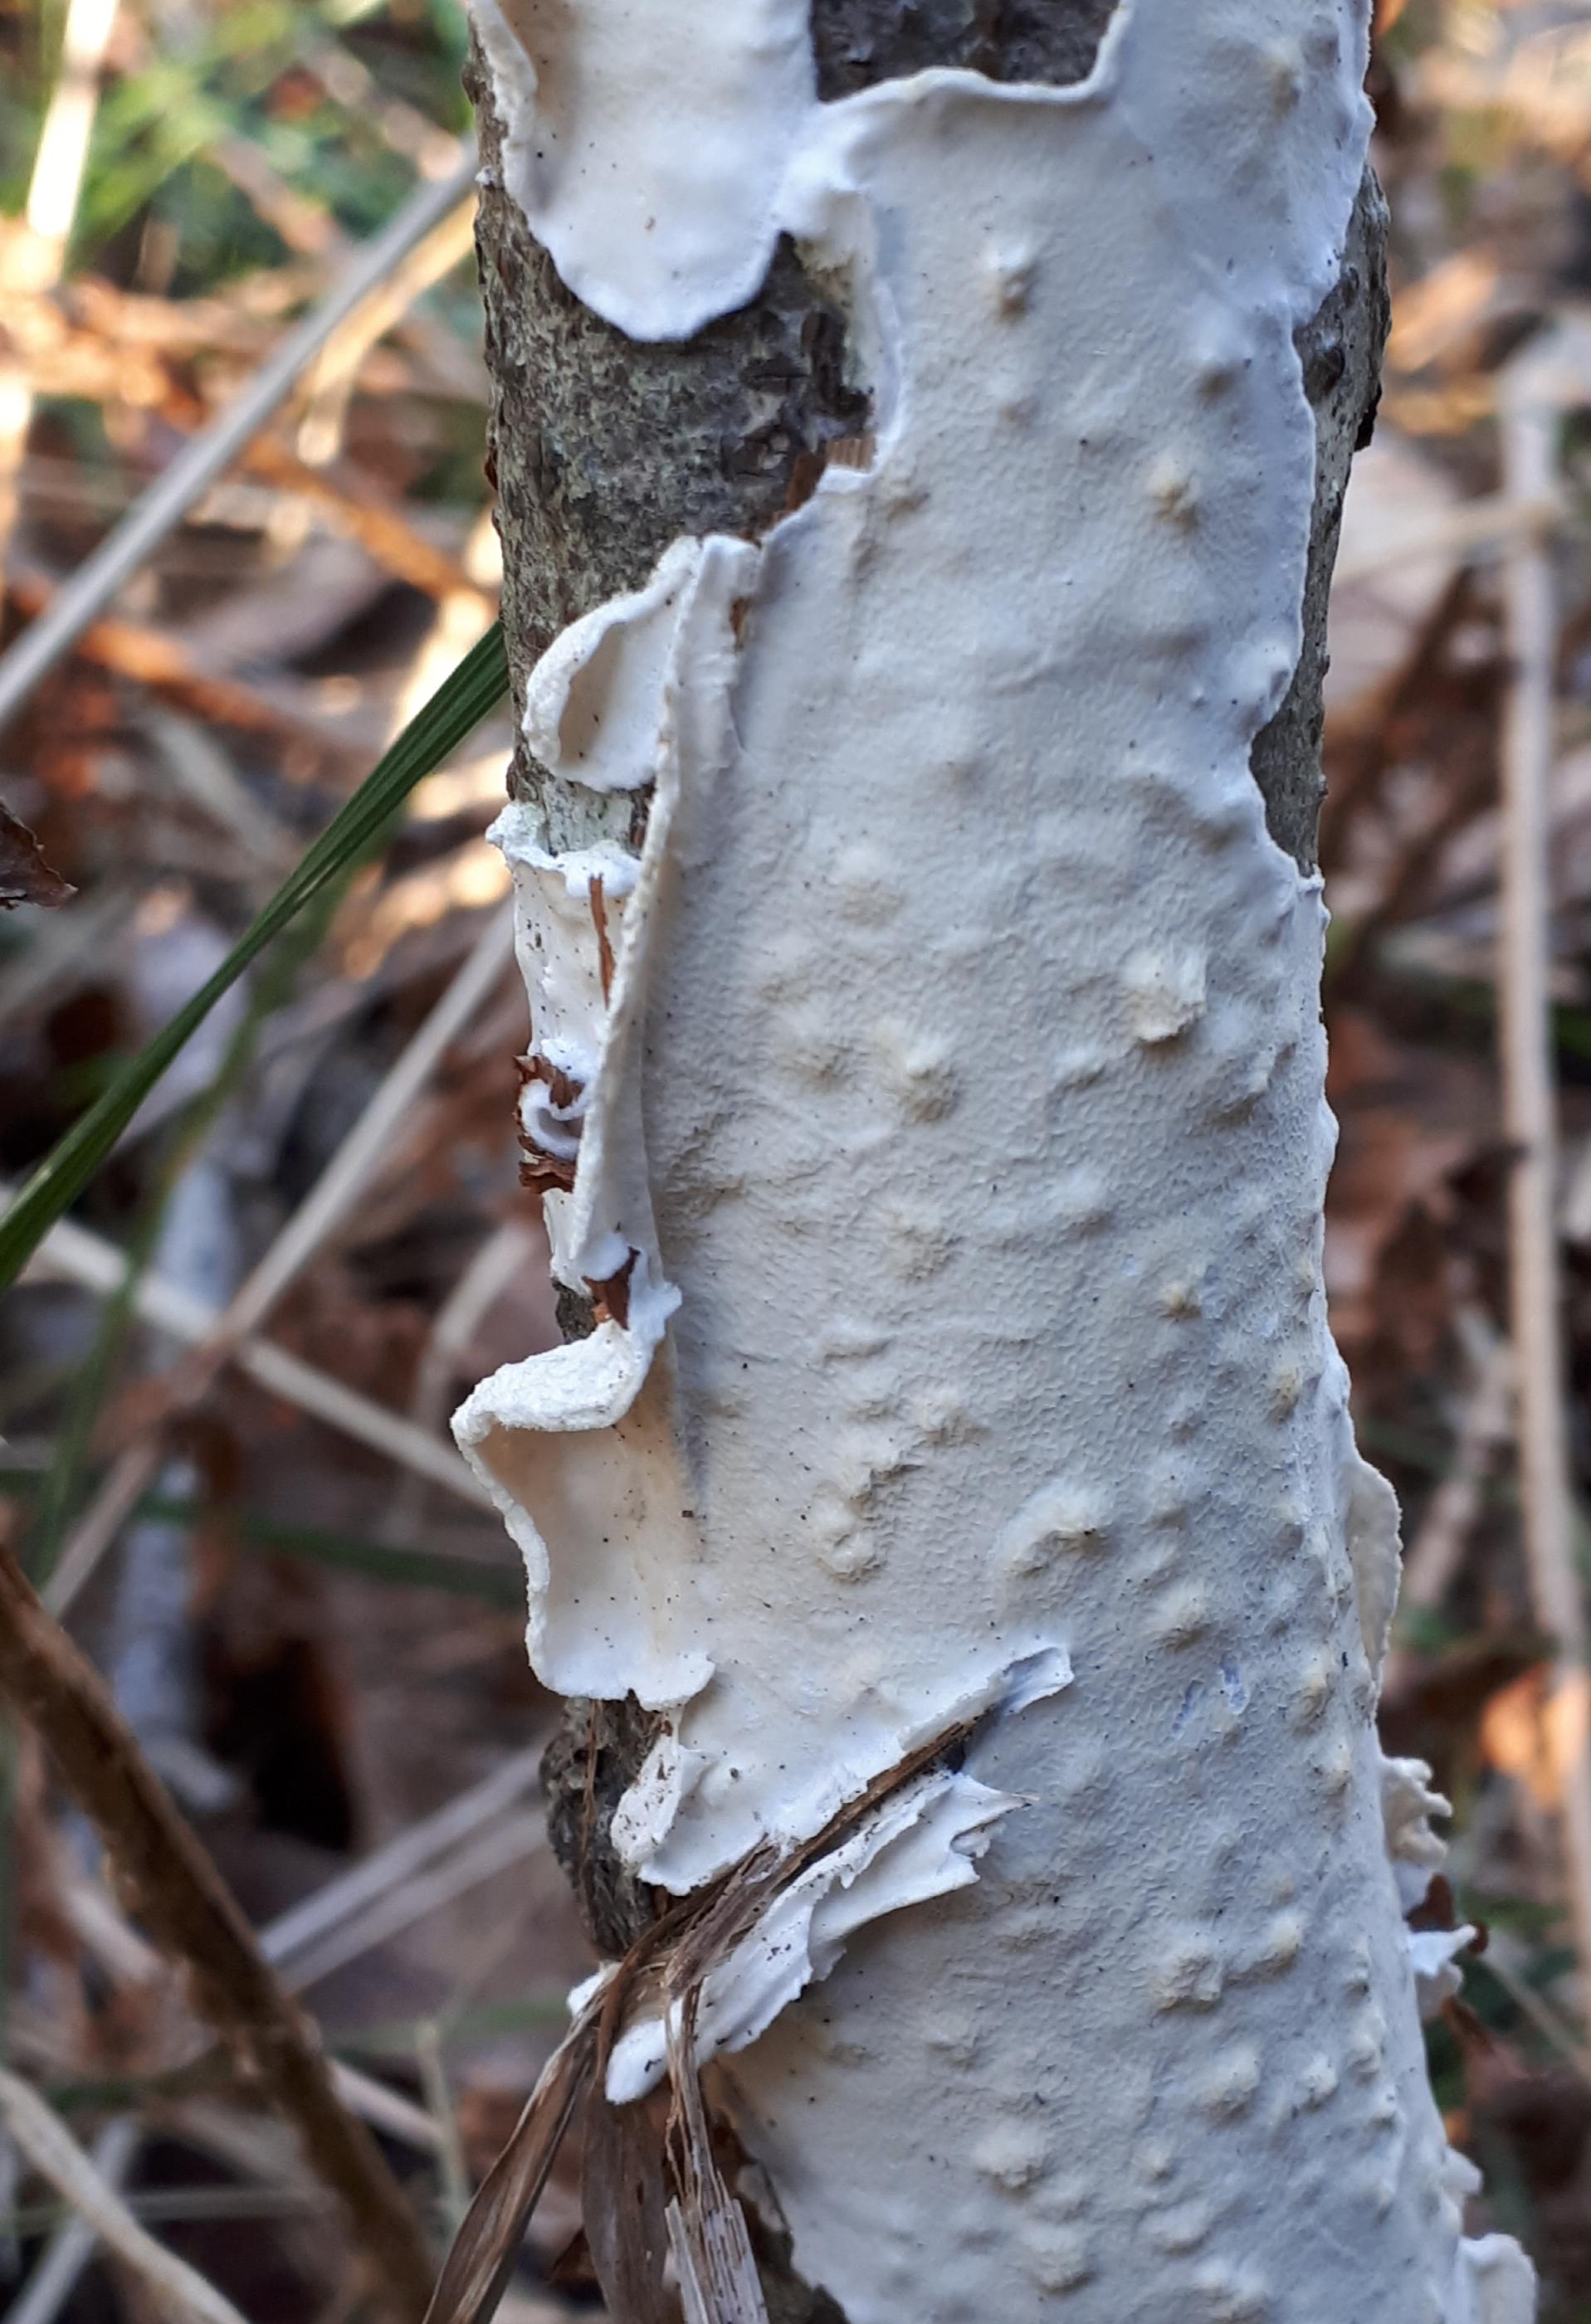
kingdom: Fungi
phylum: Basidiomycota
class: Agaricomycetes
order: Polyporales
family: Irpicaceae
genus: Byssomerulius
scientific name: Byssomerulius corium
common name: læder-åresvamp
